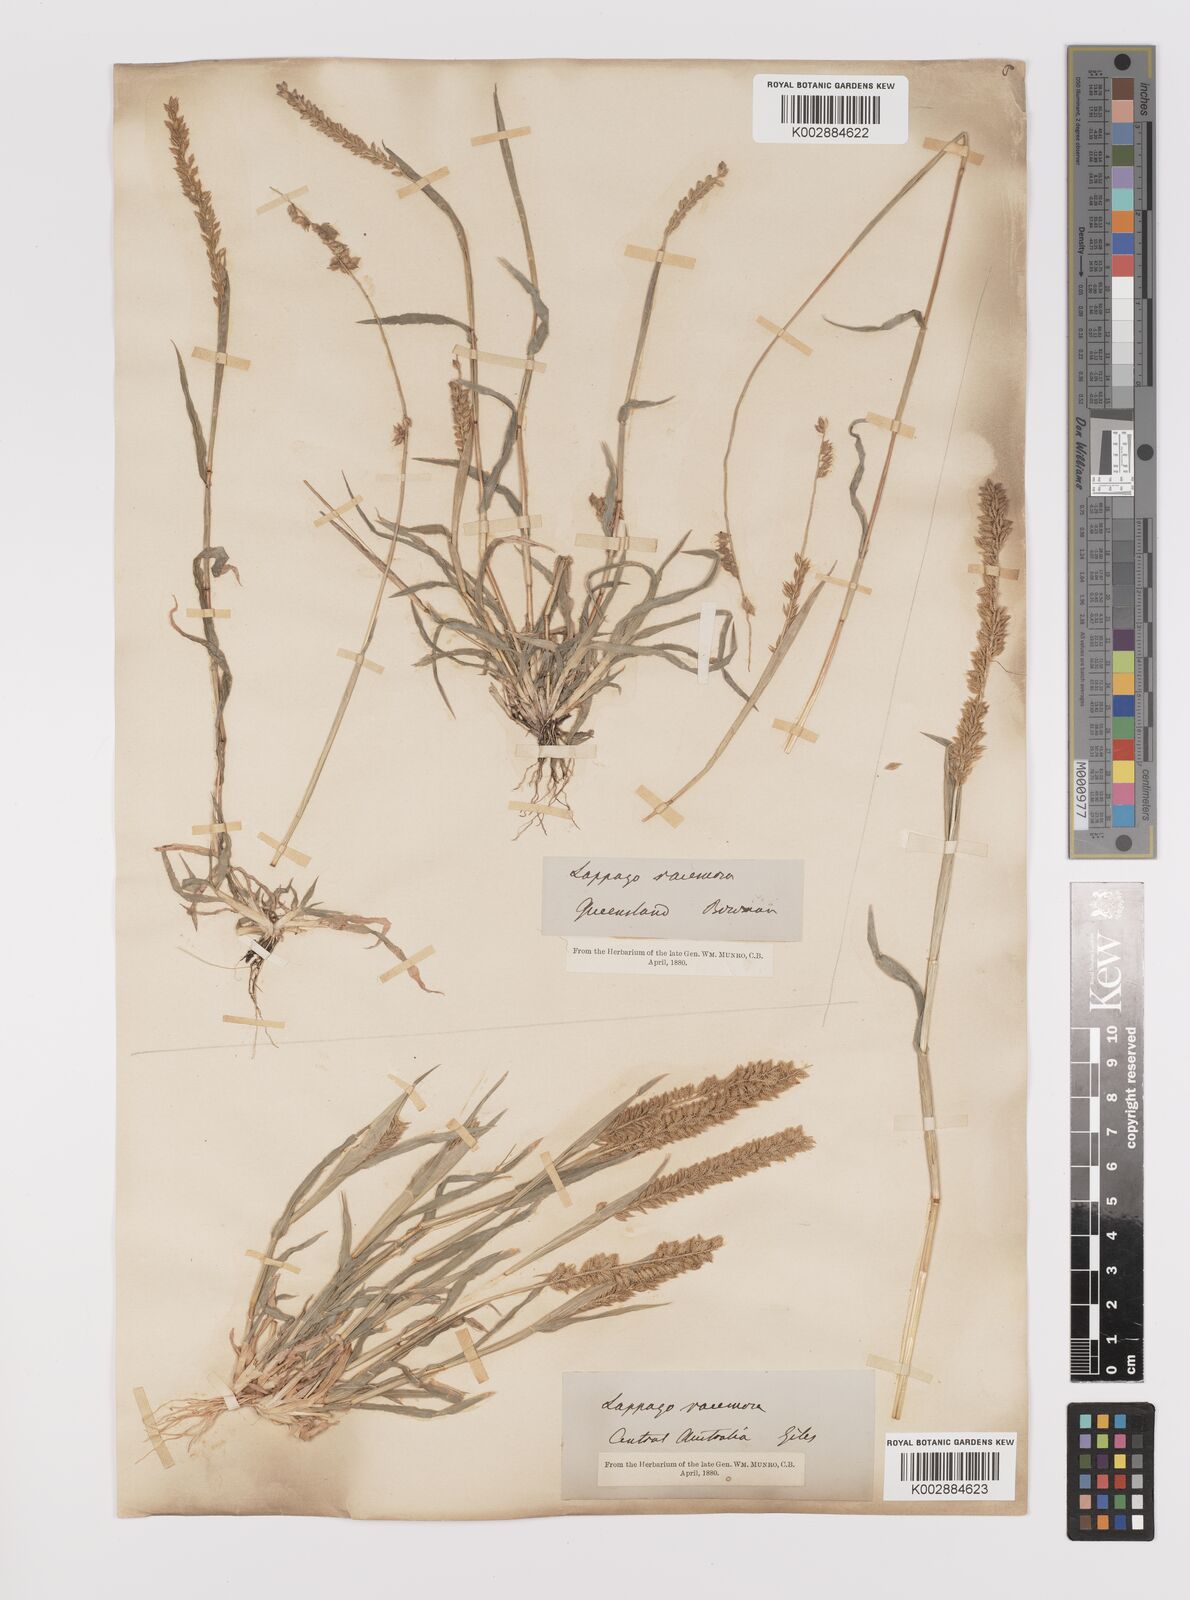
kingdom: Plantae
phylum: Tracheophyta
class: Liliopsida
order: Poales
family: Poaceae
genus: Tragus
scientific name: Tragus australianus
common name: Australian bur-grass
